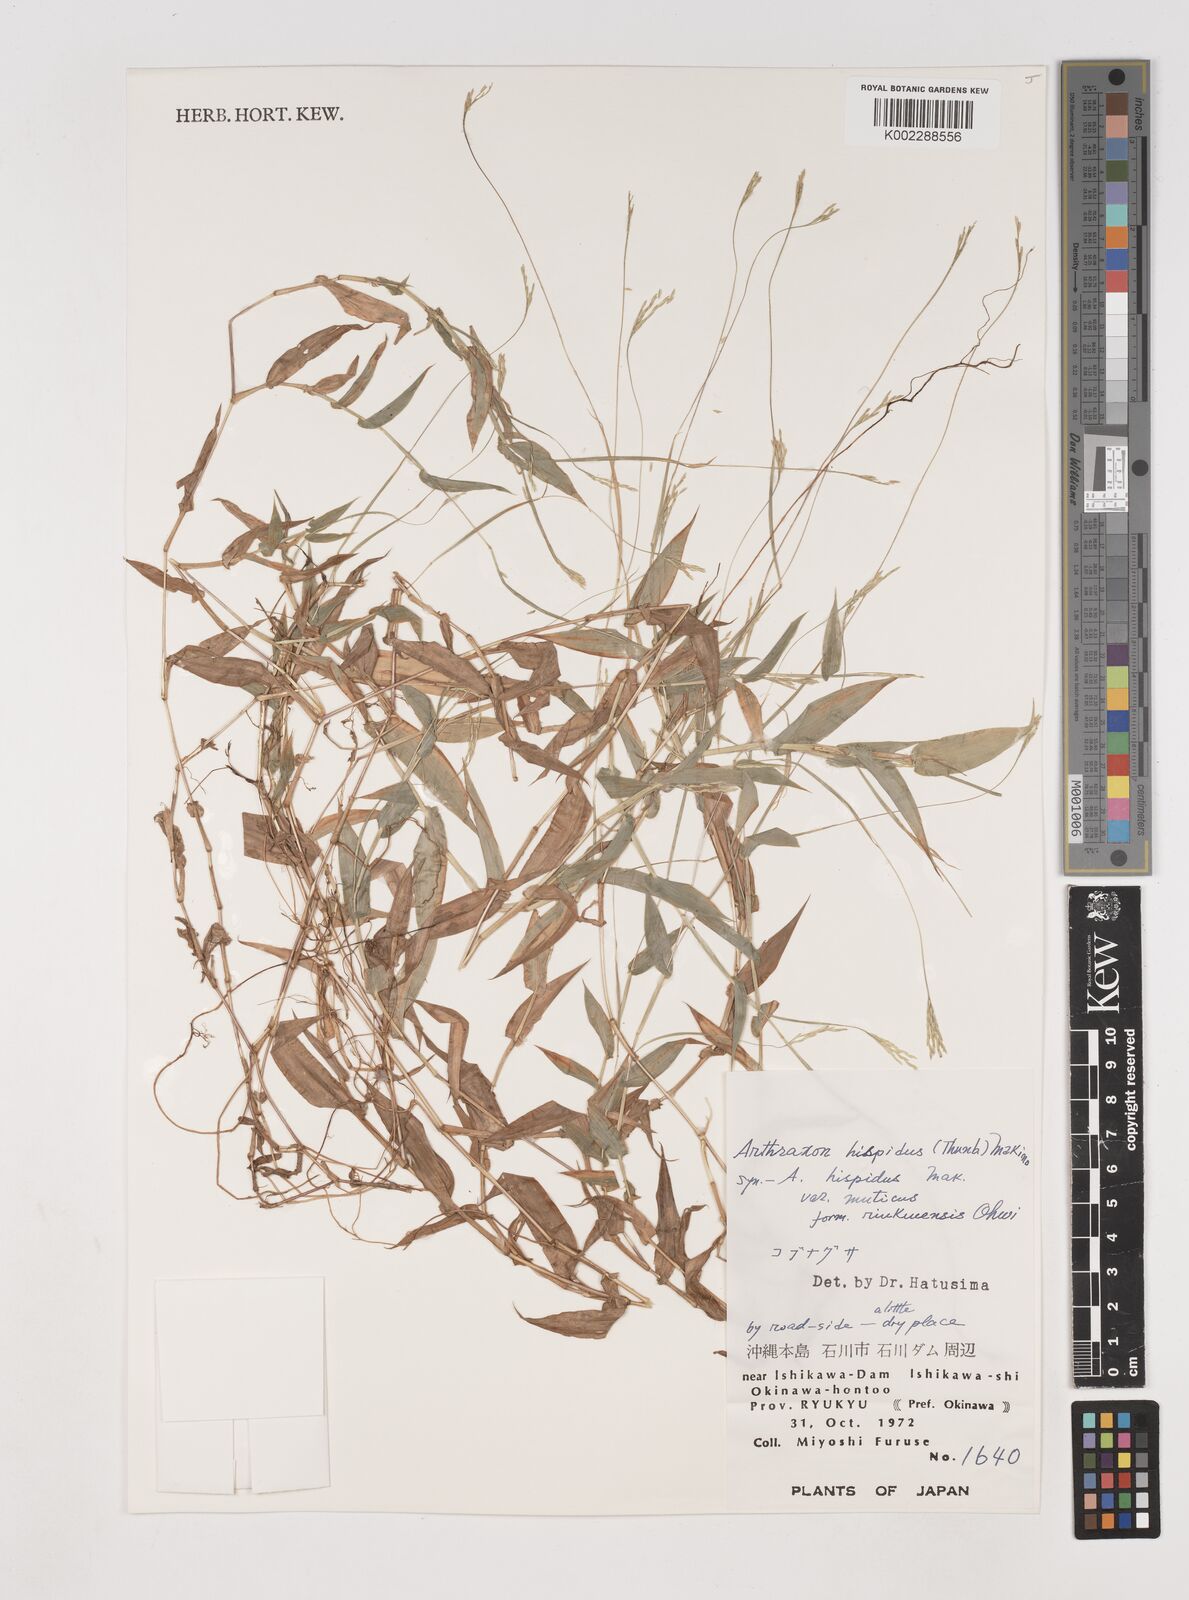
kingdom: Plantae
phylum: Tracheophyta
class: Liliopsida
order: Poales
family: Poaceae
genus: Arthraxon
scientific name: Arthraxon hispidus
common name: Small carpgrass
